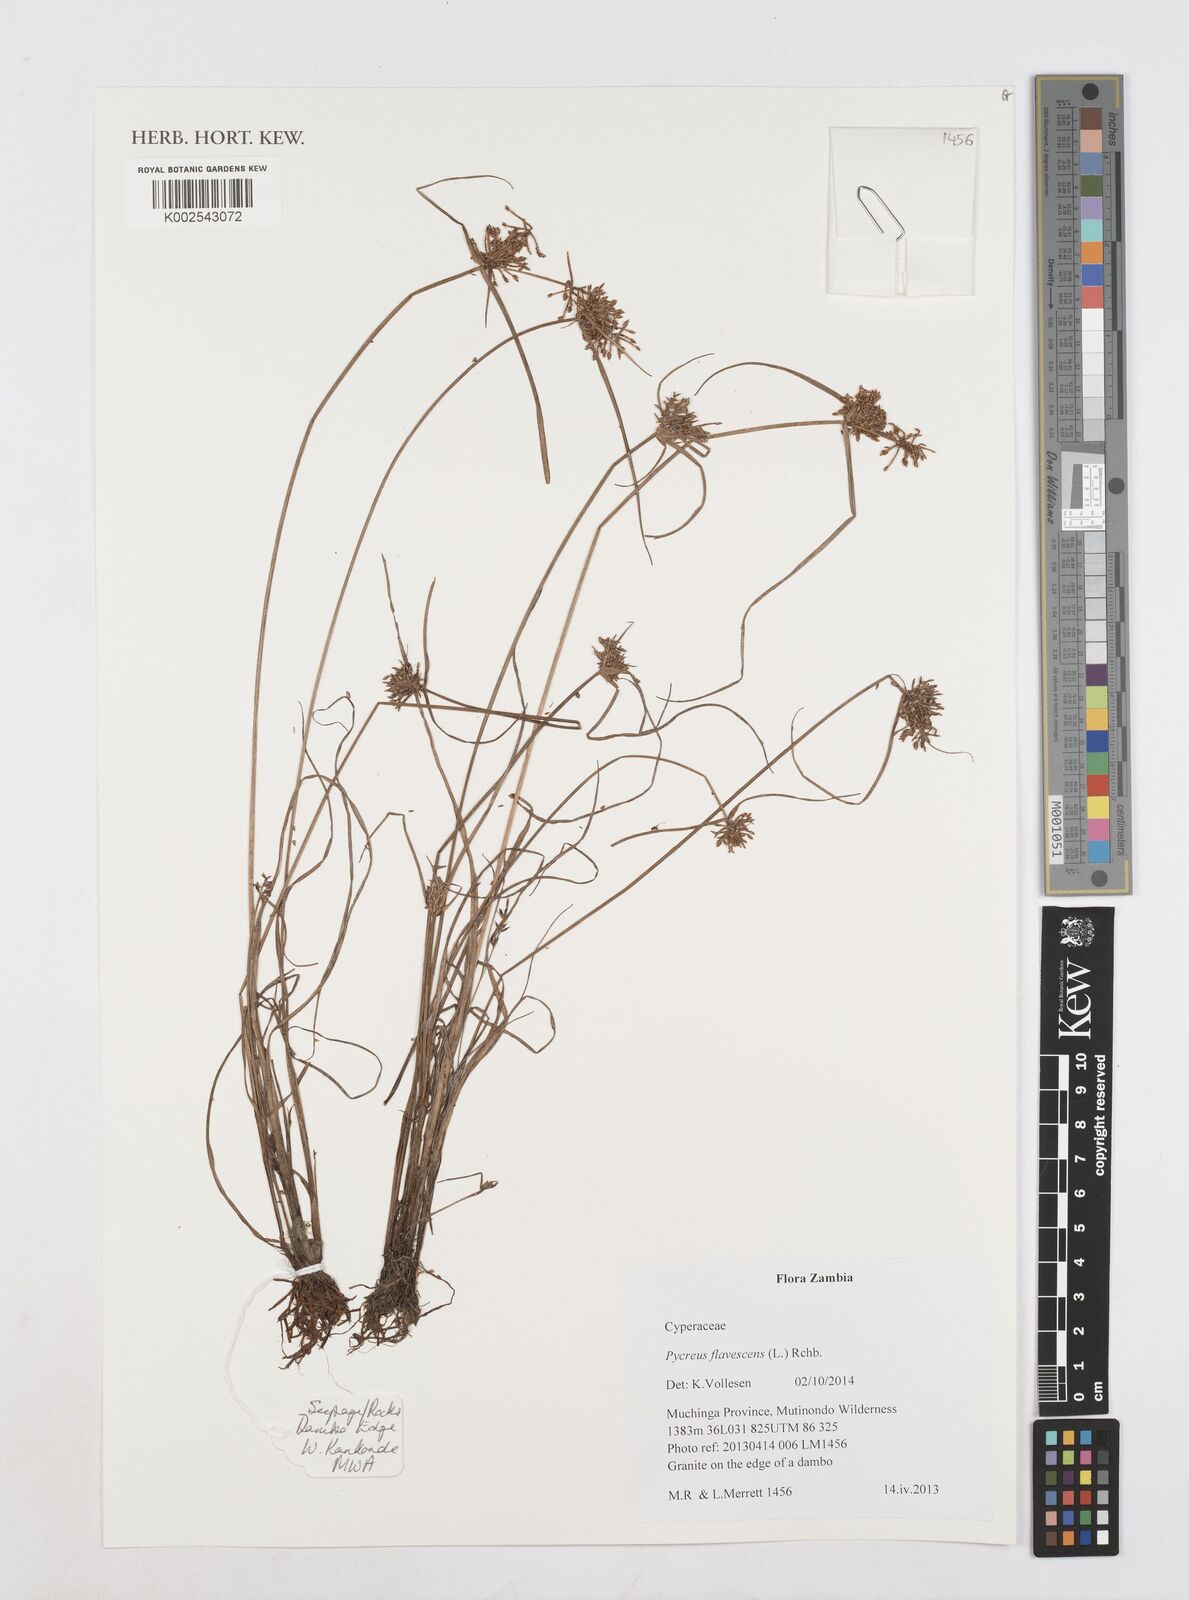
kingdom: Plantae
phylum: Tracheophyta
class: Liliopsida
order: Poales
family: Cyperaceae
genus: Cyperus
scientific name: Cyperus flavescens
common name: Yellow galingale
